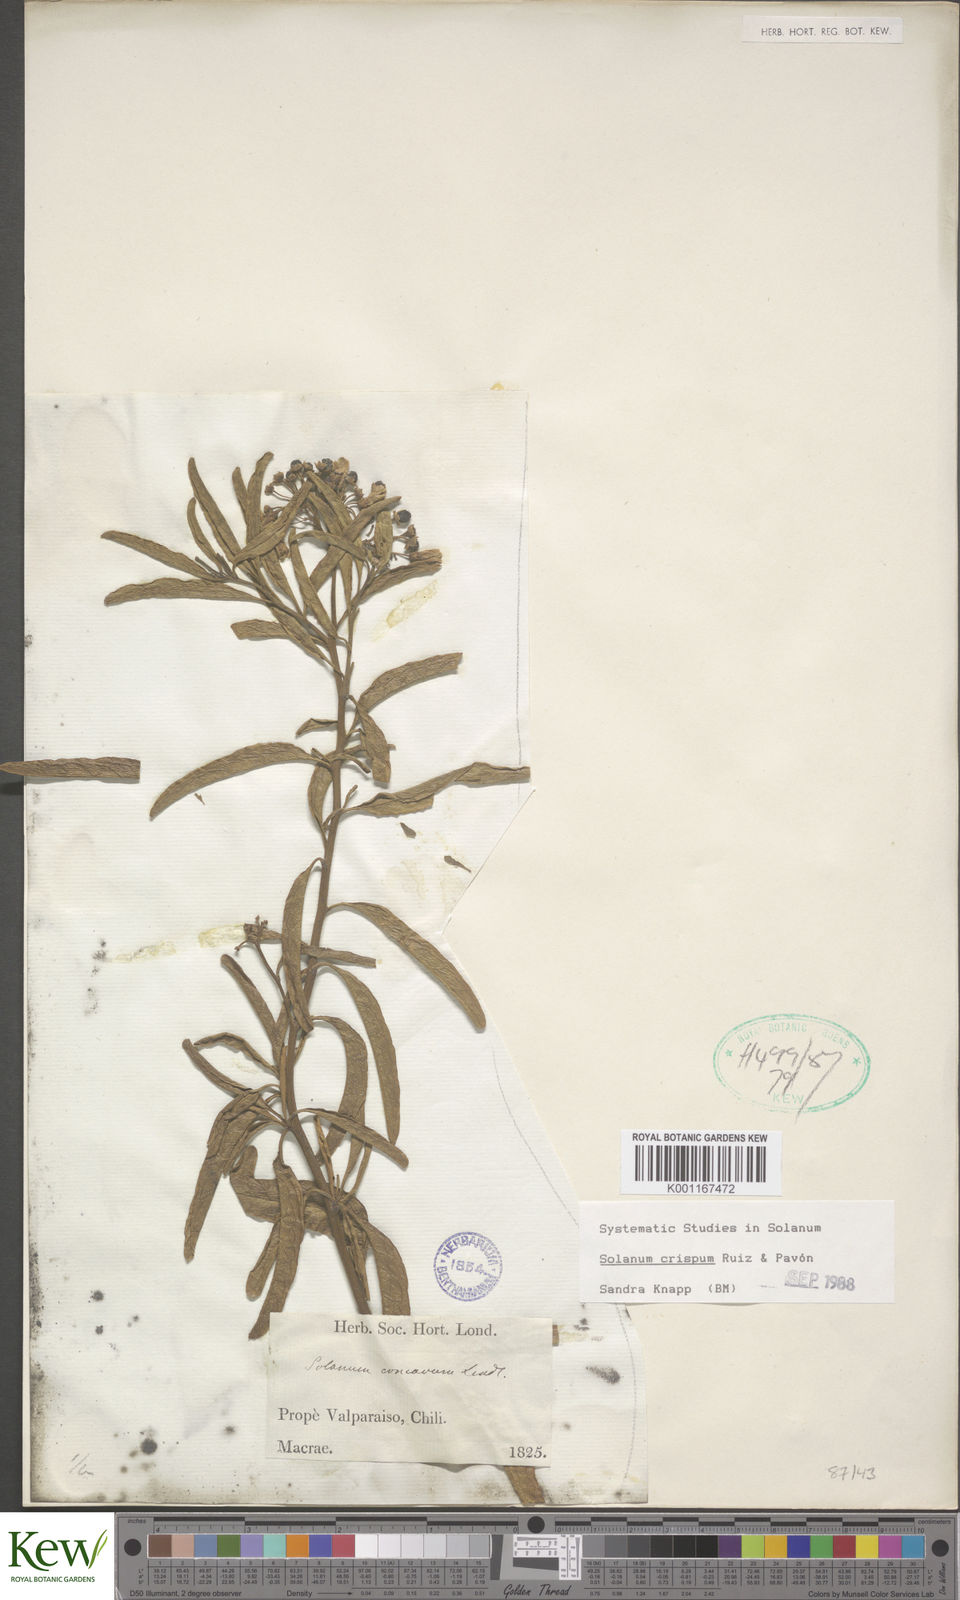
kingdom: Plantae
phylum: Tracheophyta
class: Magnoliopsida
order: Solanales
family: Solanaceae
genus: Solanum
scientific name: Solanum crispum
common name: Chilean nightshade
